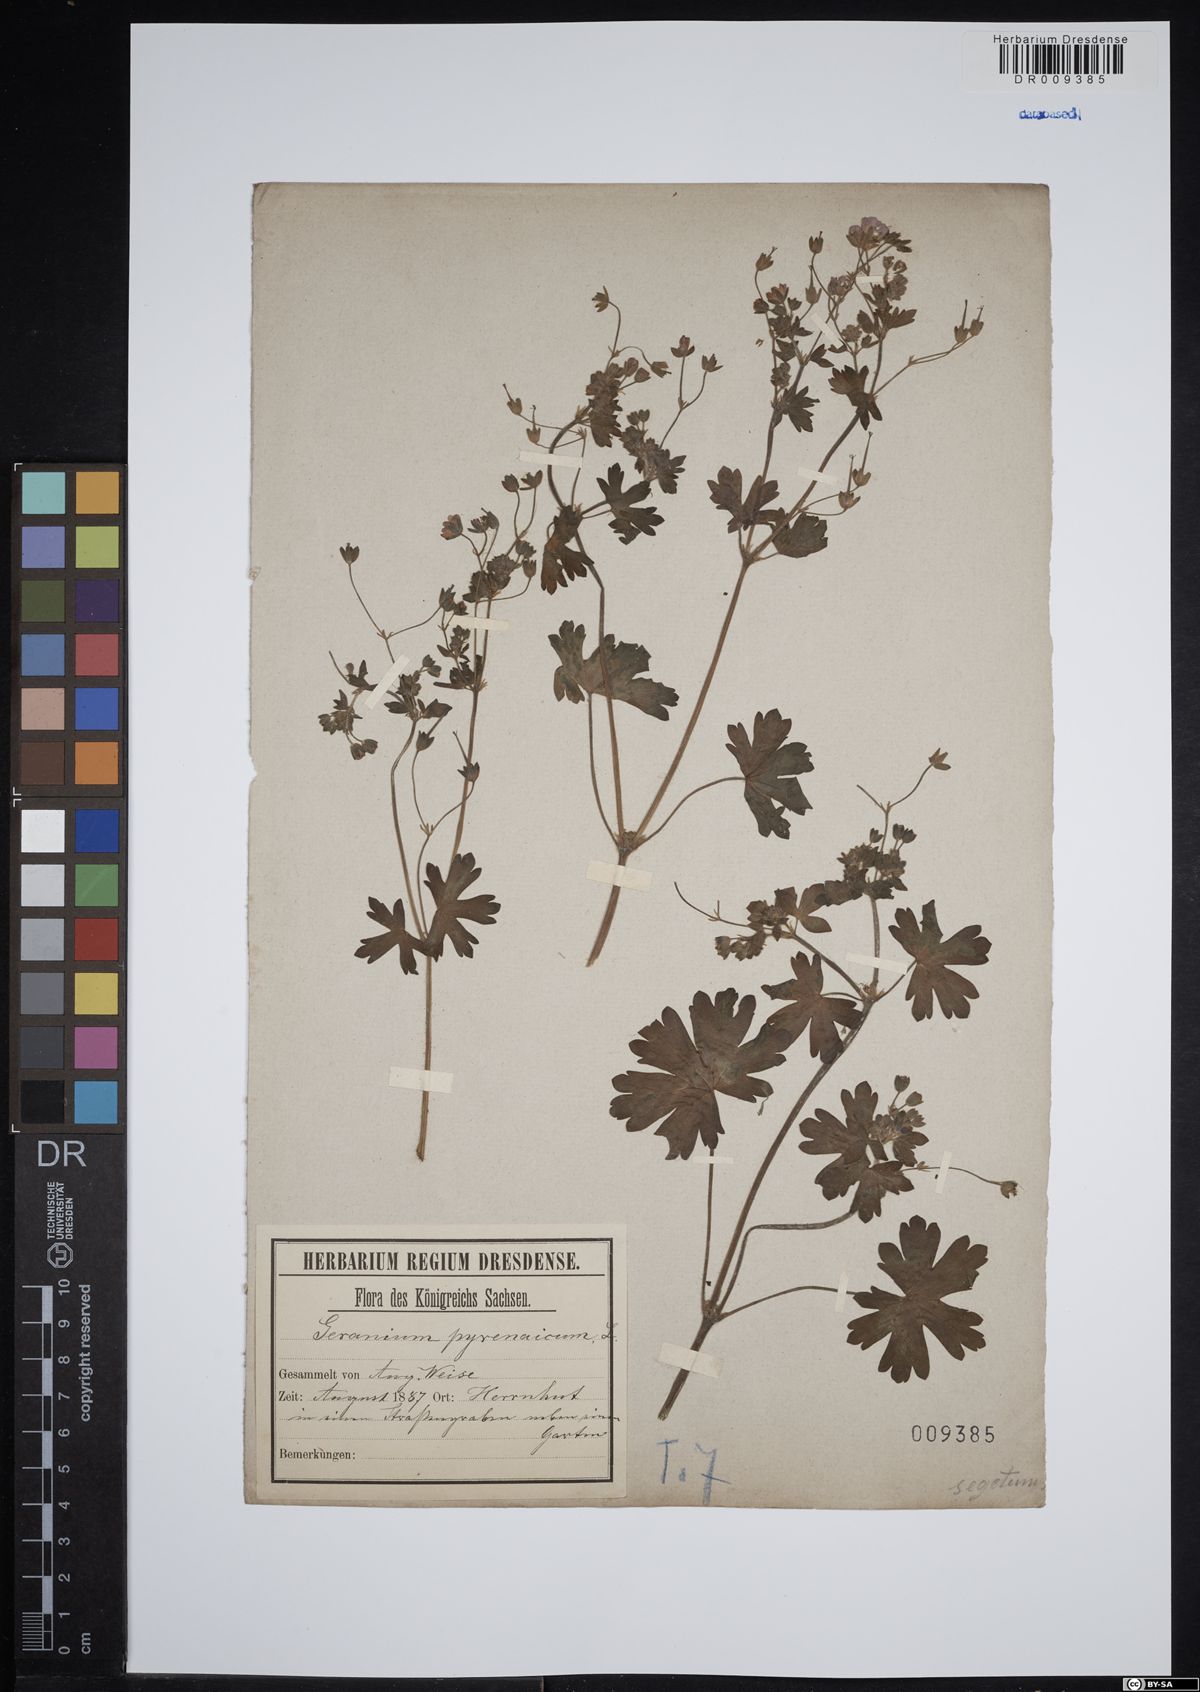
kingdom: Plantae
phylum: Tracheophyta
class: Magnoliopsida
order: Geraniales
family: Geraniaceae
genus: Geranium
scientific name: Geranium pyrenaicum
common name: Hedgerow crane's-bill
